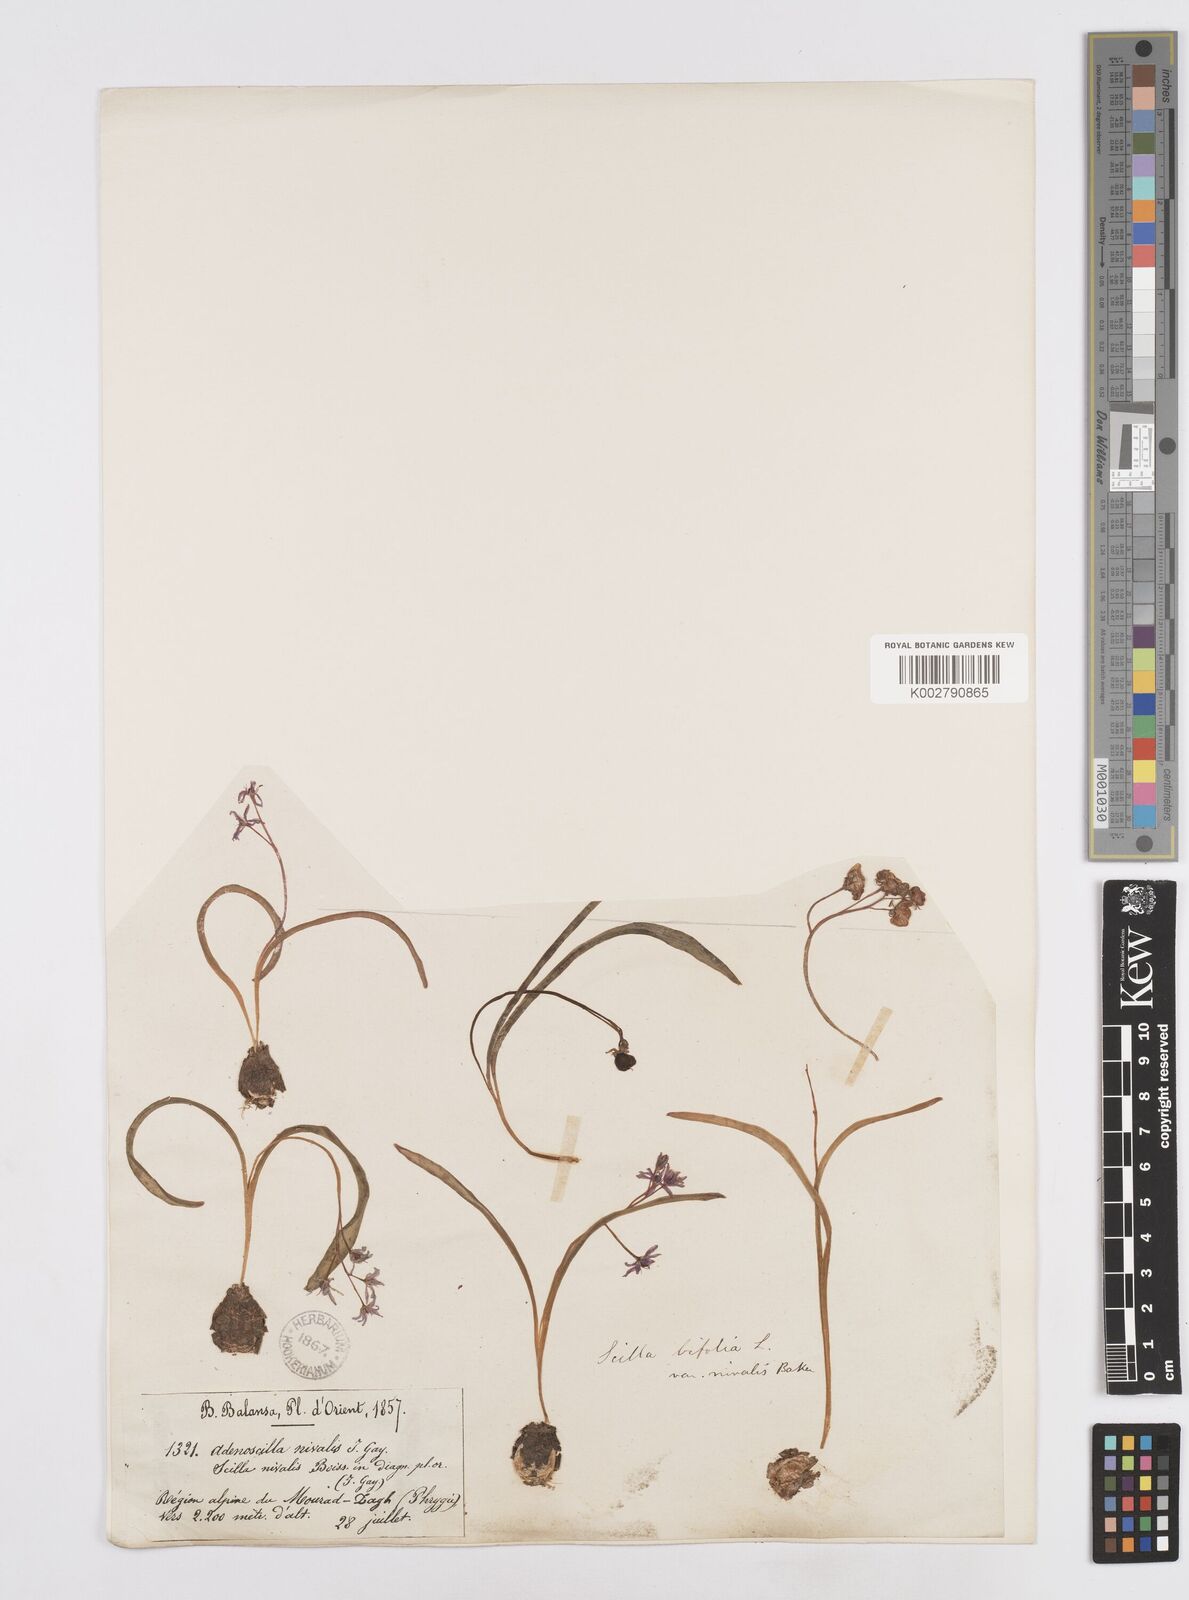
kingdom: Plantae
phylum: Tracheophyta
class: Liliopsida
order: Asparagales
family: Asparagaceae
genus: Scilla
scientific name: Scilla bifolia
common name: Alpine squill
